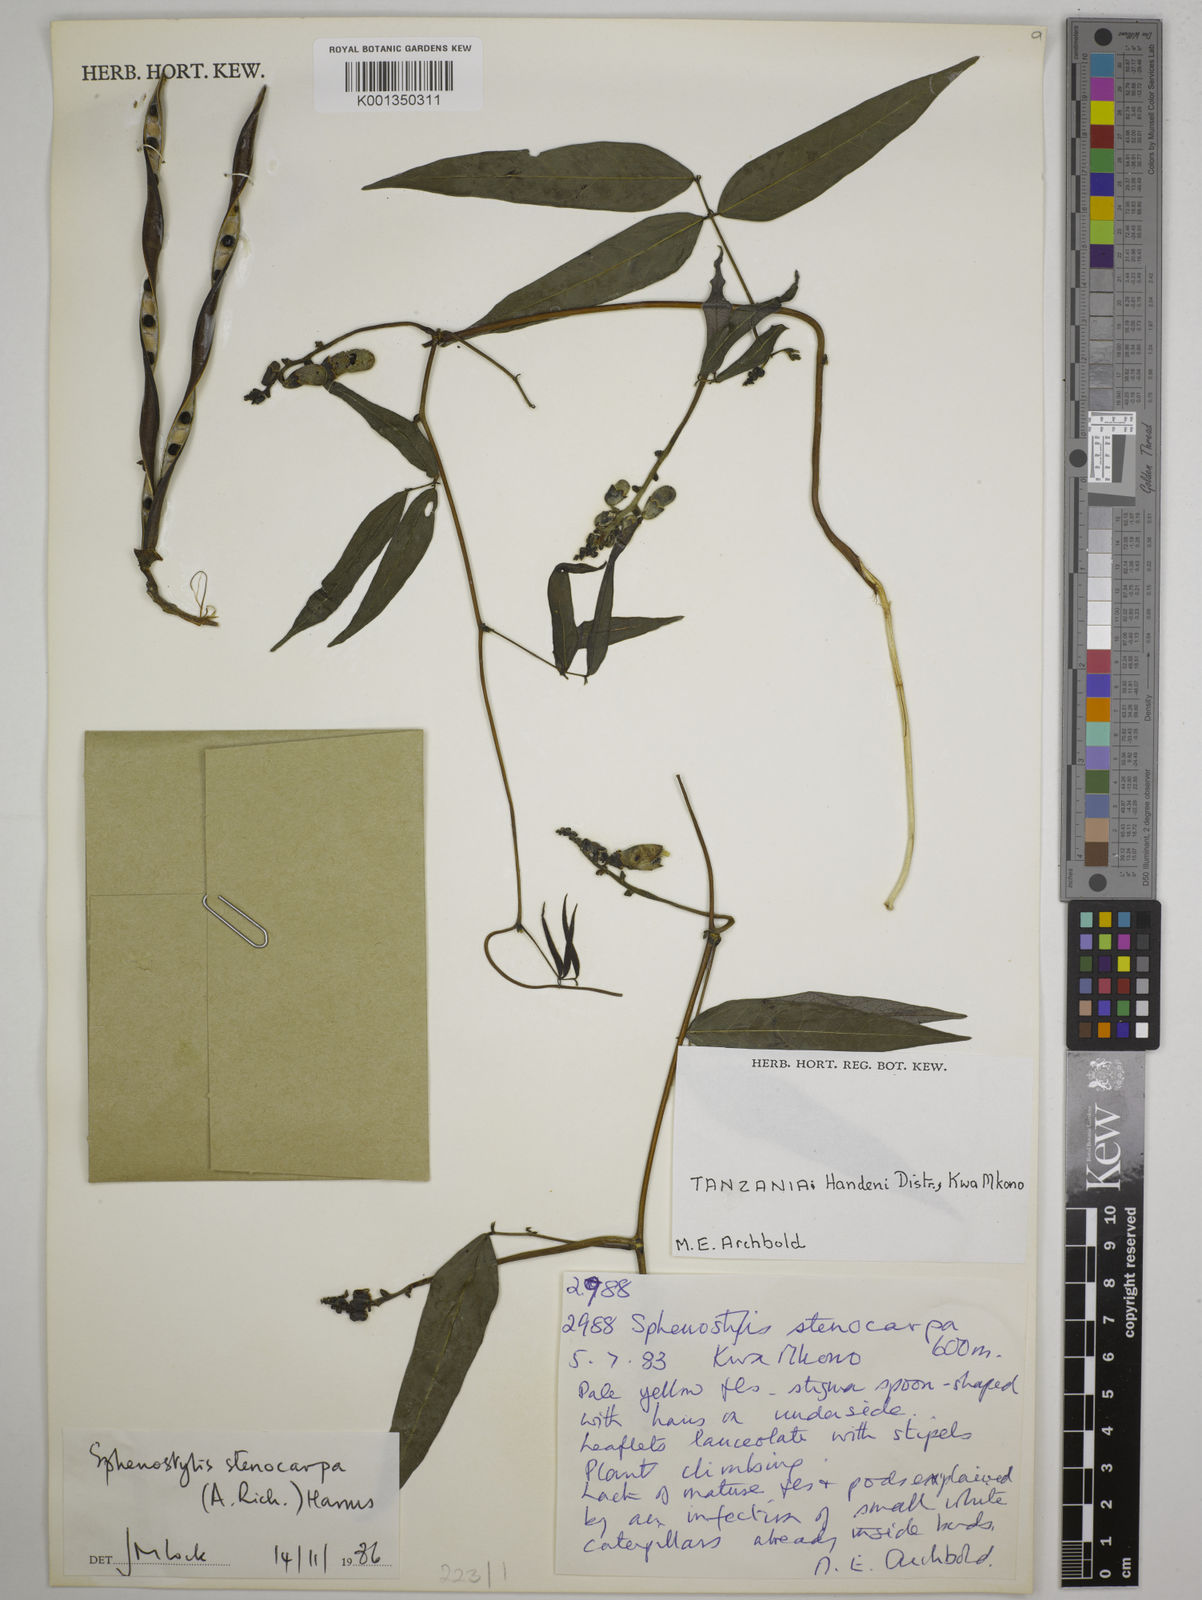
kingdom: Plantae
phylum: Tracheophyta
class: Magnoliopsida
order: Fabales
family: Fabaceae
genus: Sphenostylis
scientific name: Sphenostylis stenocarpa
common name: Yam-pea
